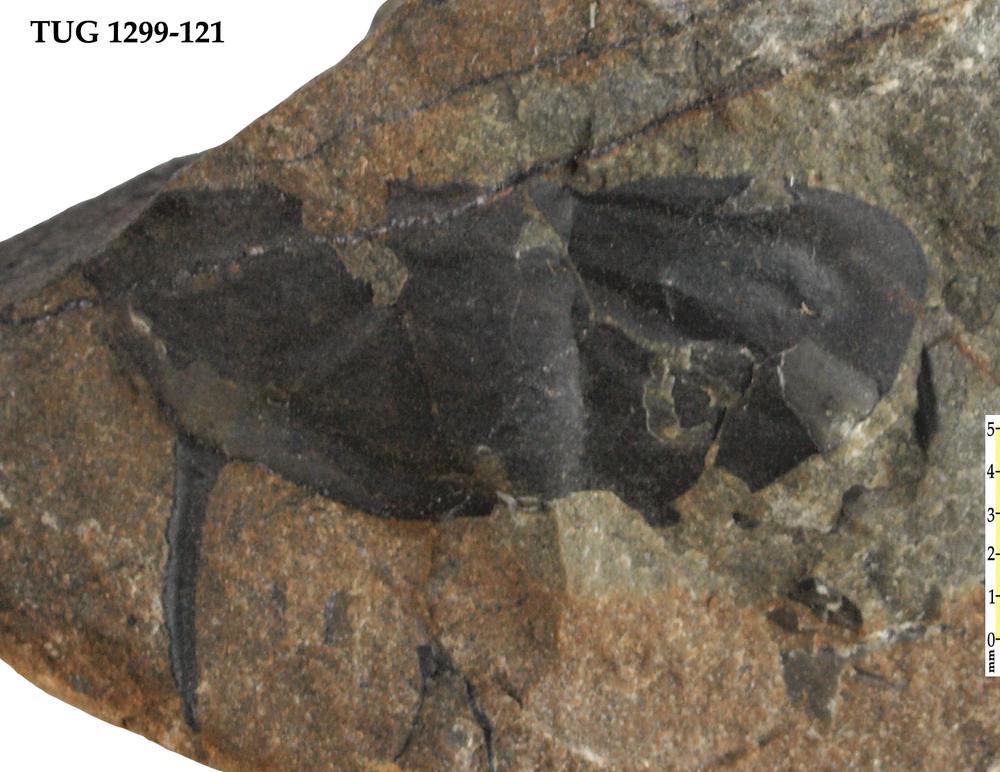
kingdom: Animalia
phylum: Arthropoda
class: Trilobita
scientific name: Trilobita
